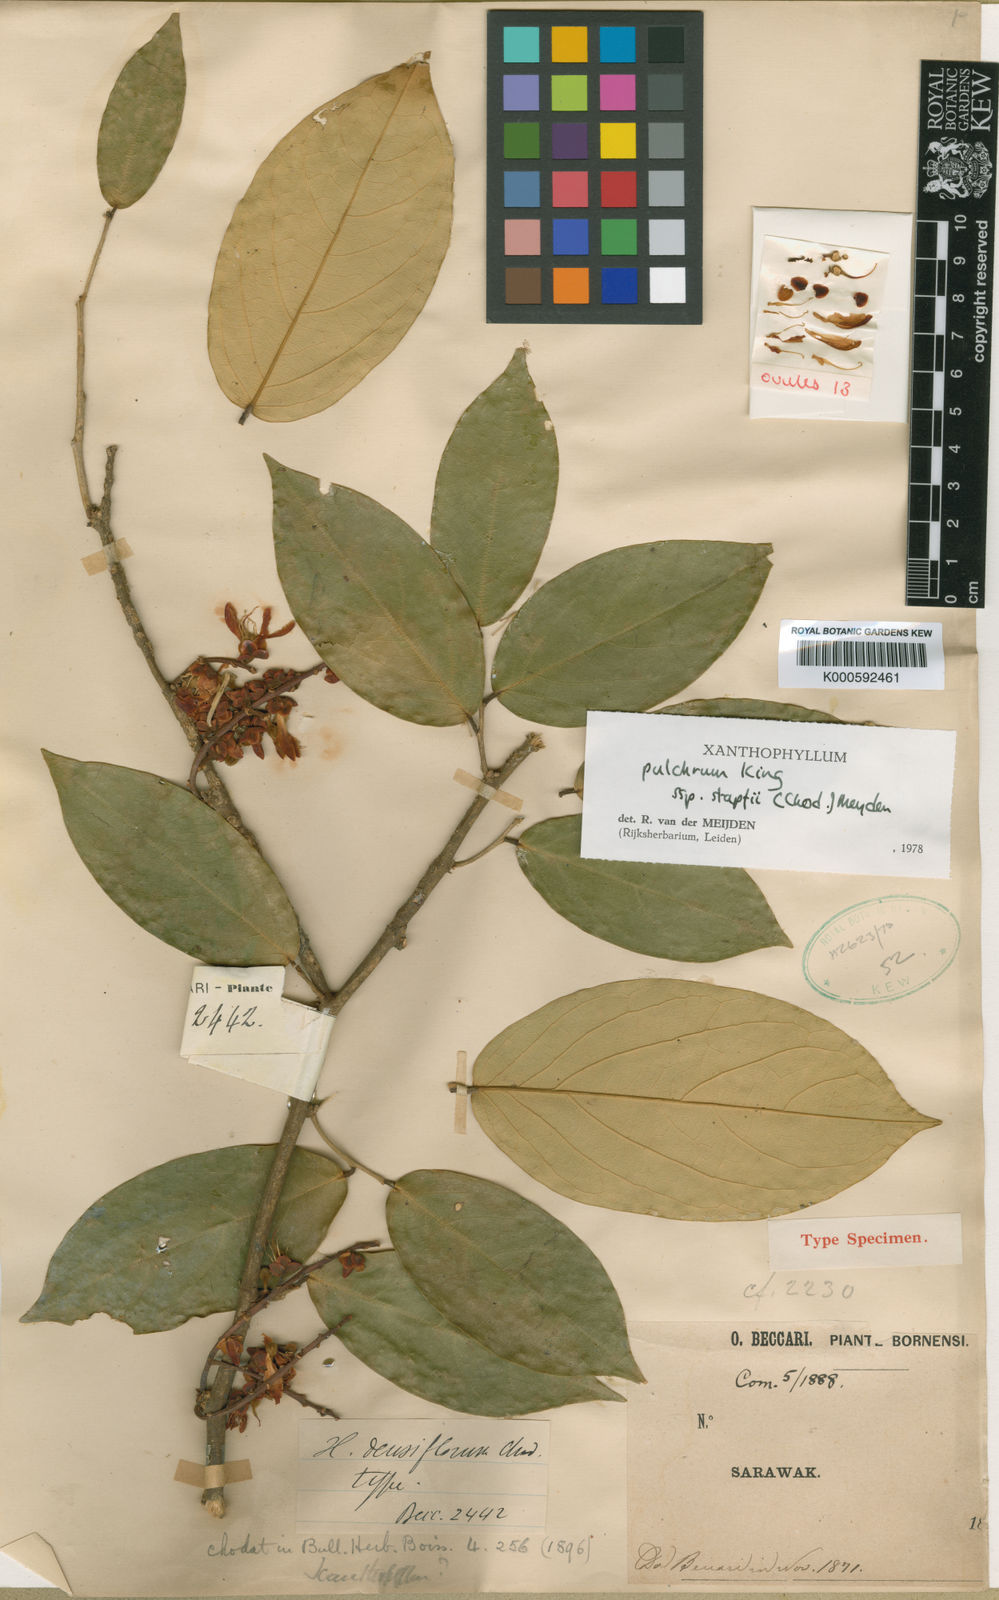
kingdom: Plantae
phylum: Tracheophyta
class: Magnoliopsida
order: Fabales
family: Polygalaceae
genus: Xanthophyllum
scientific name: Xanthophyllum pulchrum
